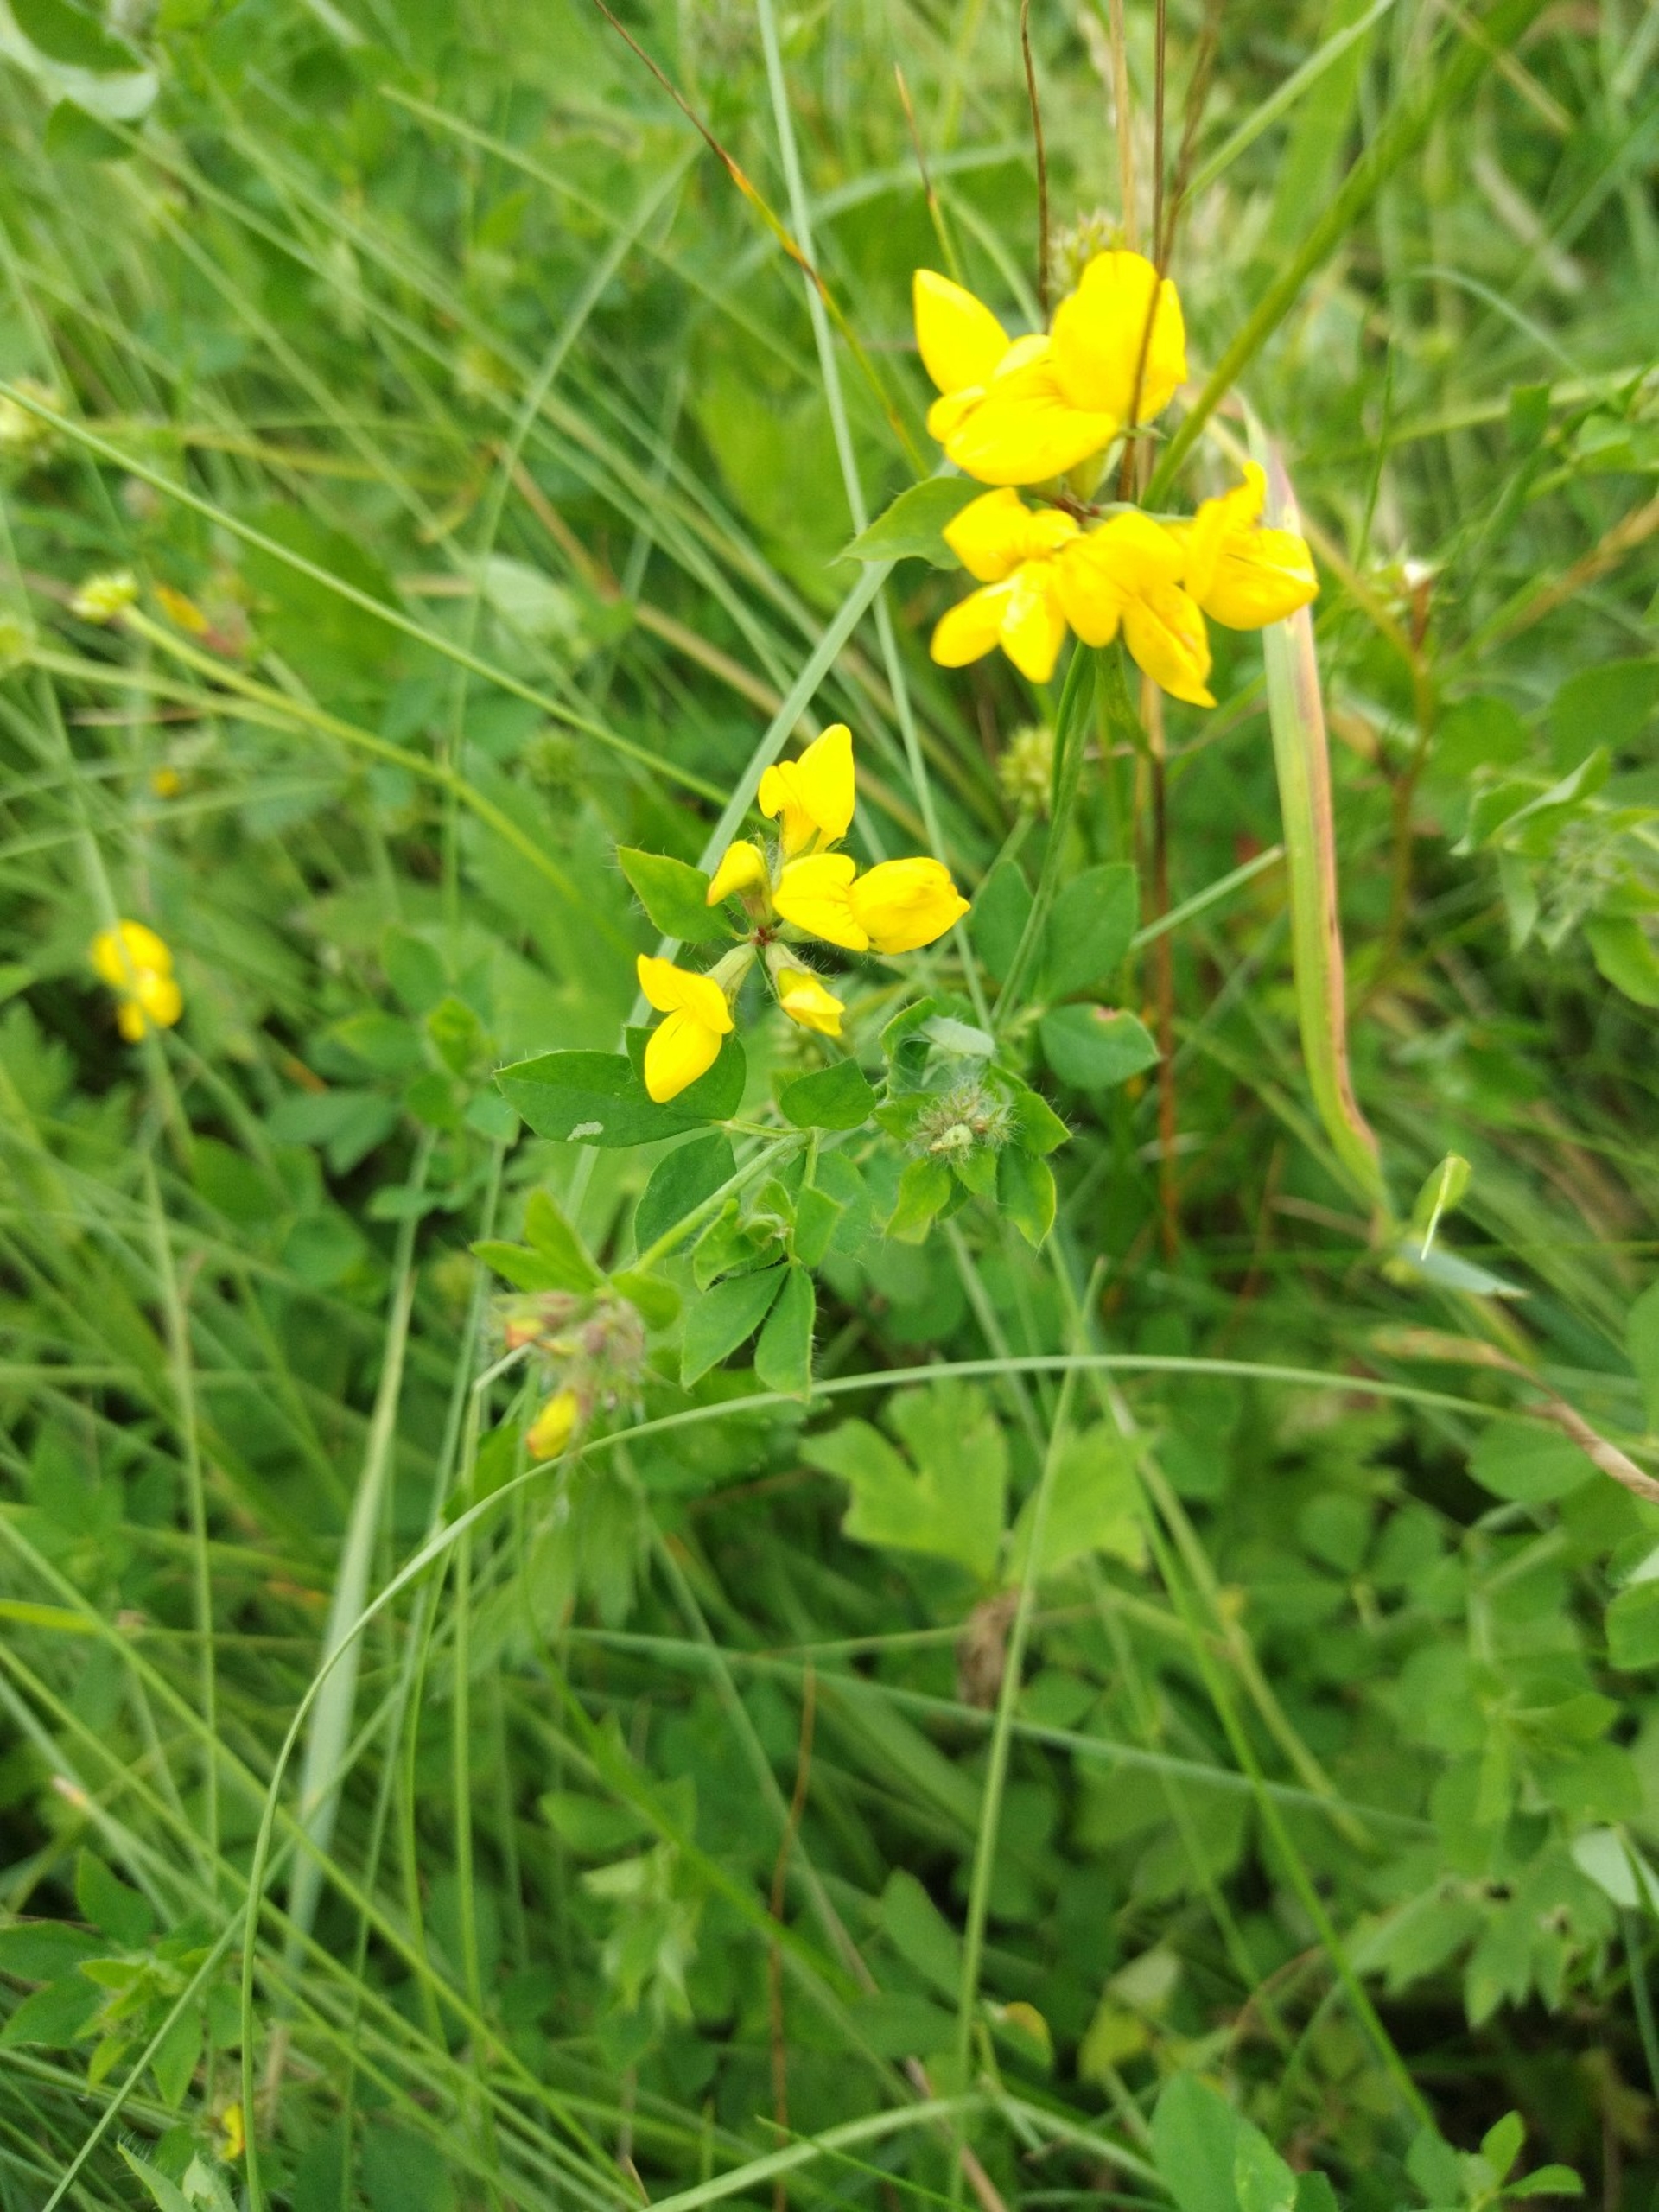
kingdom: Plantae
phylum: Tracheophyta
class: Magnoliopsida
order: Fabales
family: Fabaceae
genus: Lotus
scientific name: Lotus pedunculatus
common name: Sump-kællingetand
